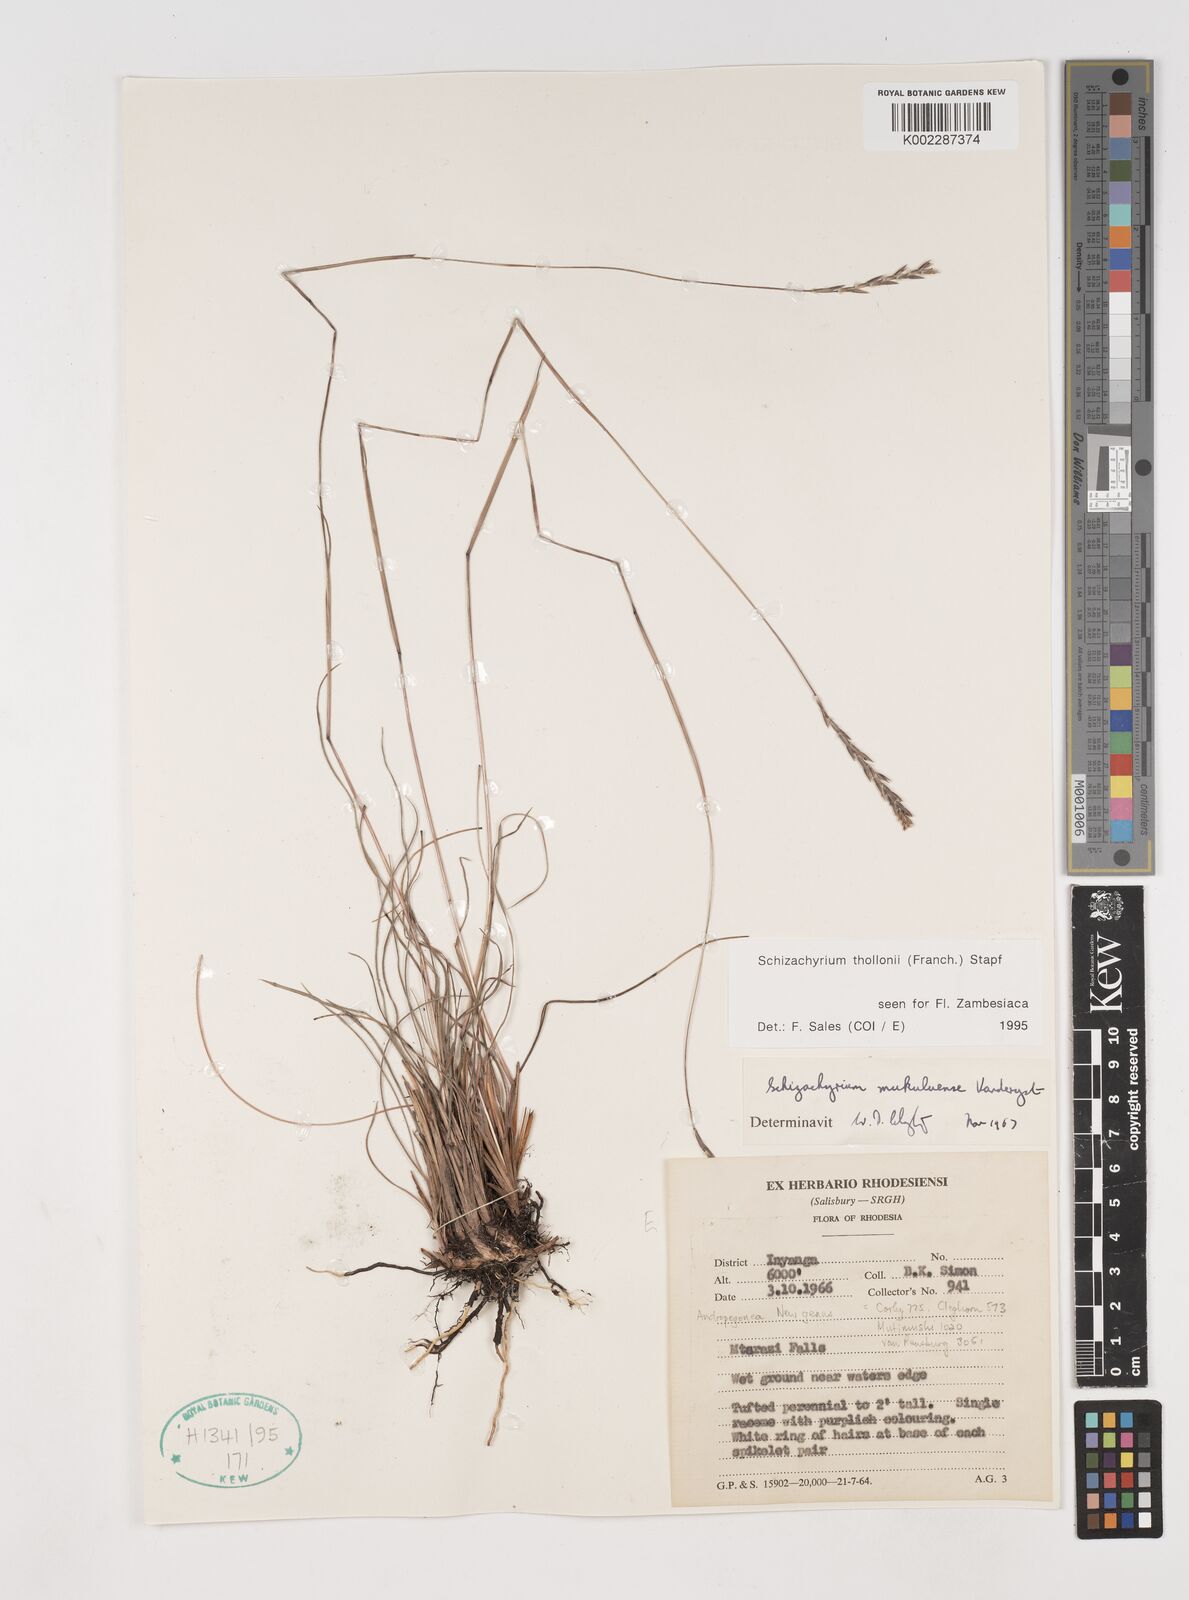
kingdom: Plantae
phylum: Tracheophyta
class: Liliopsida
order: Poales
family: Poaceae
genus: Schizachyrium
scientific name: Schizachyrium thollonii
